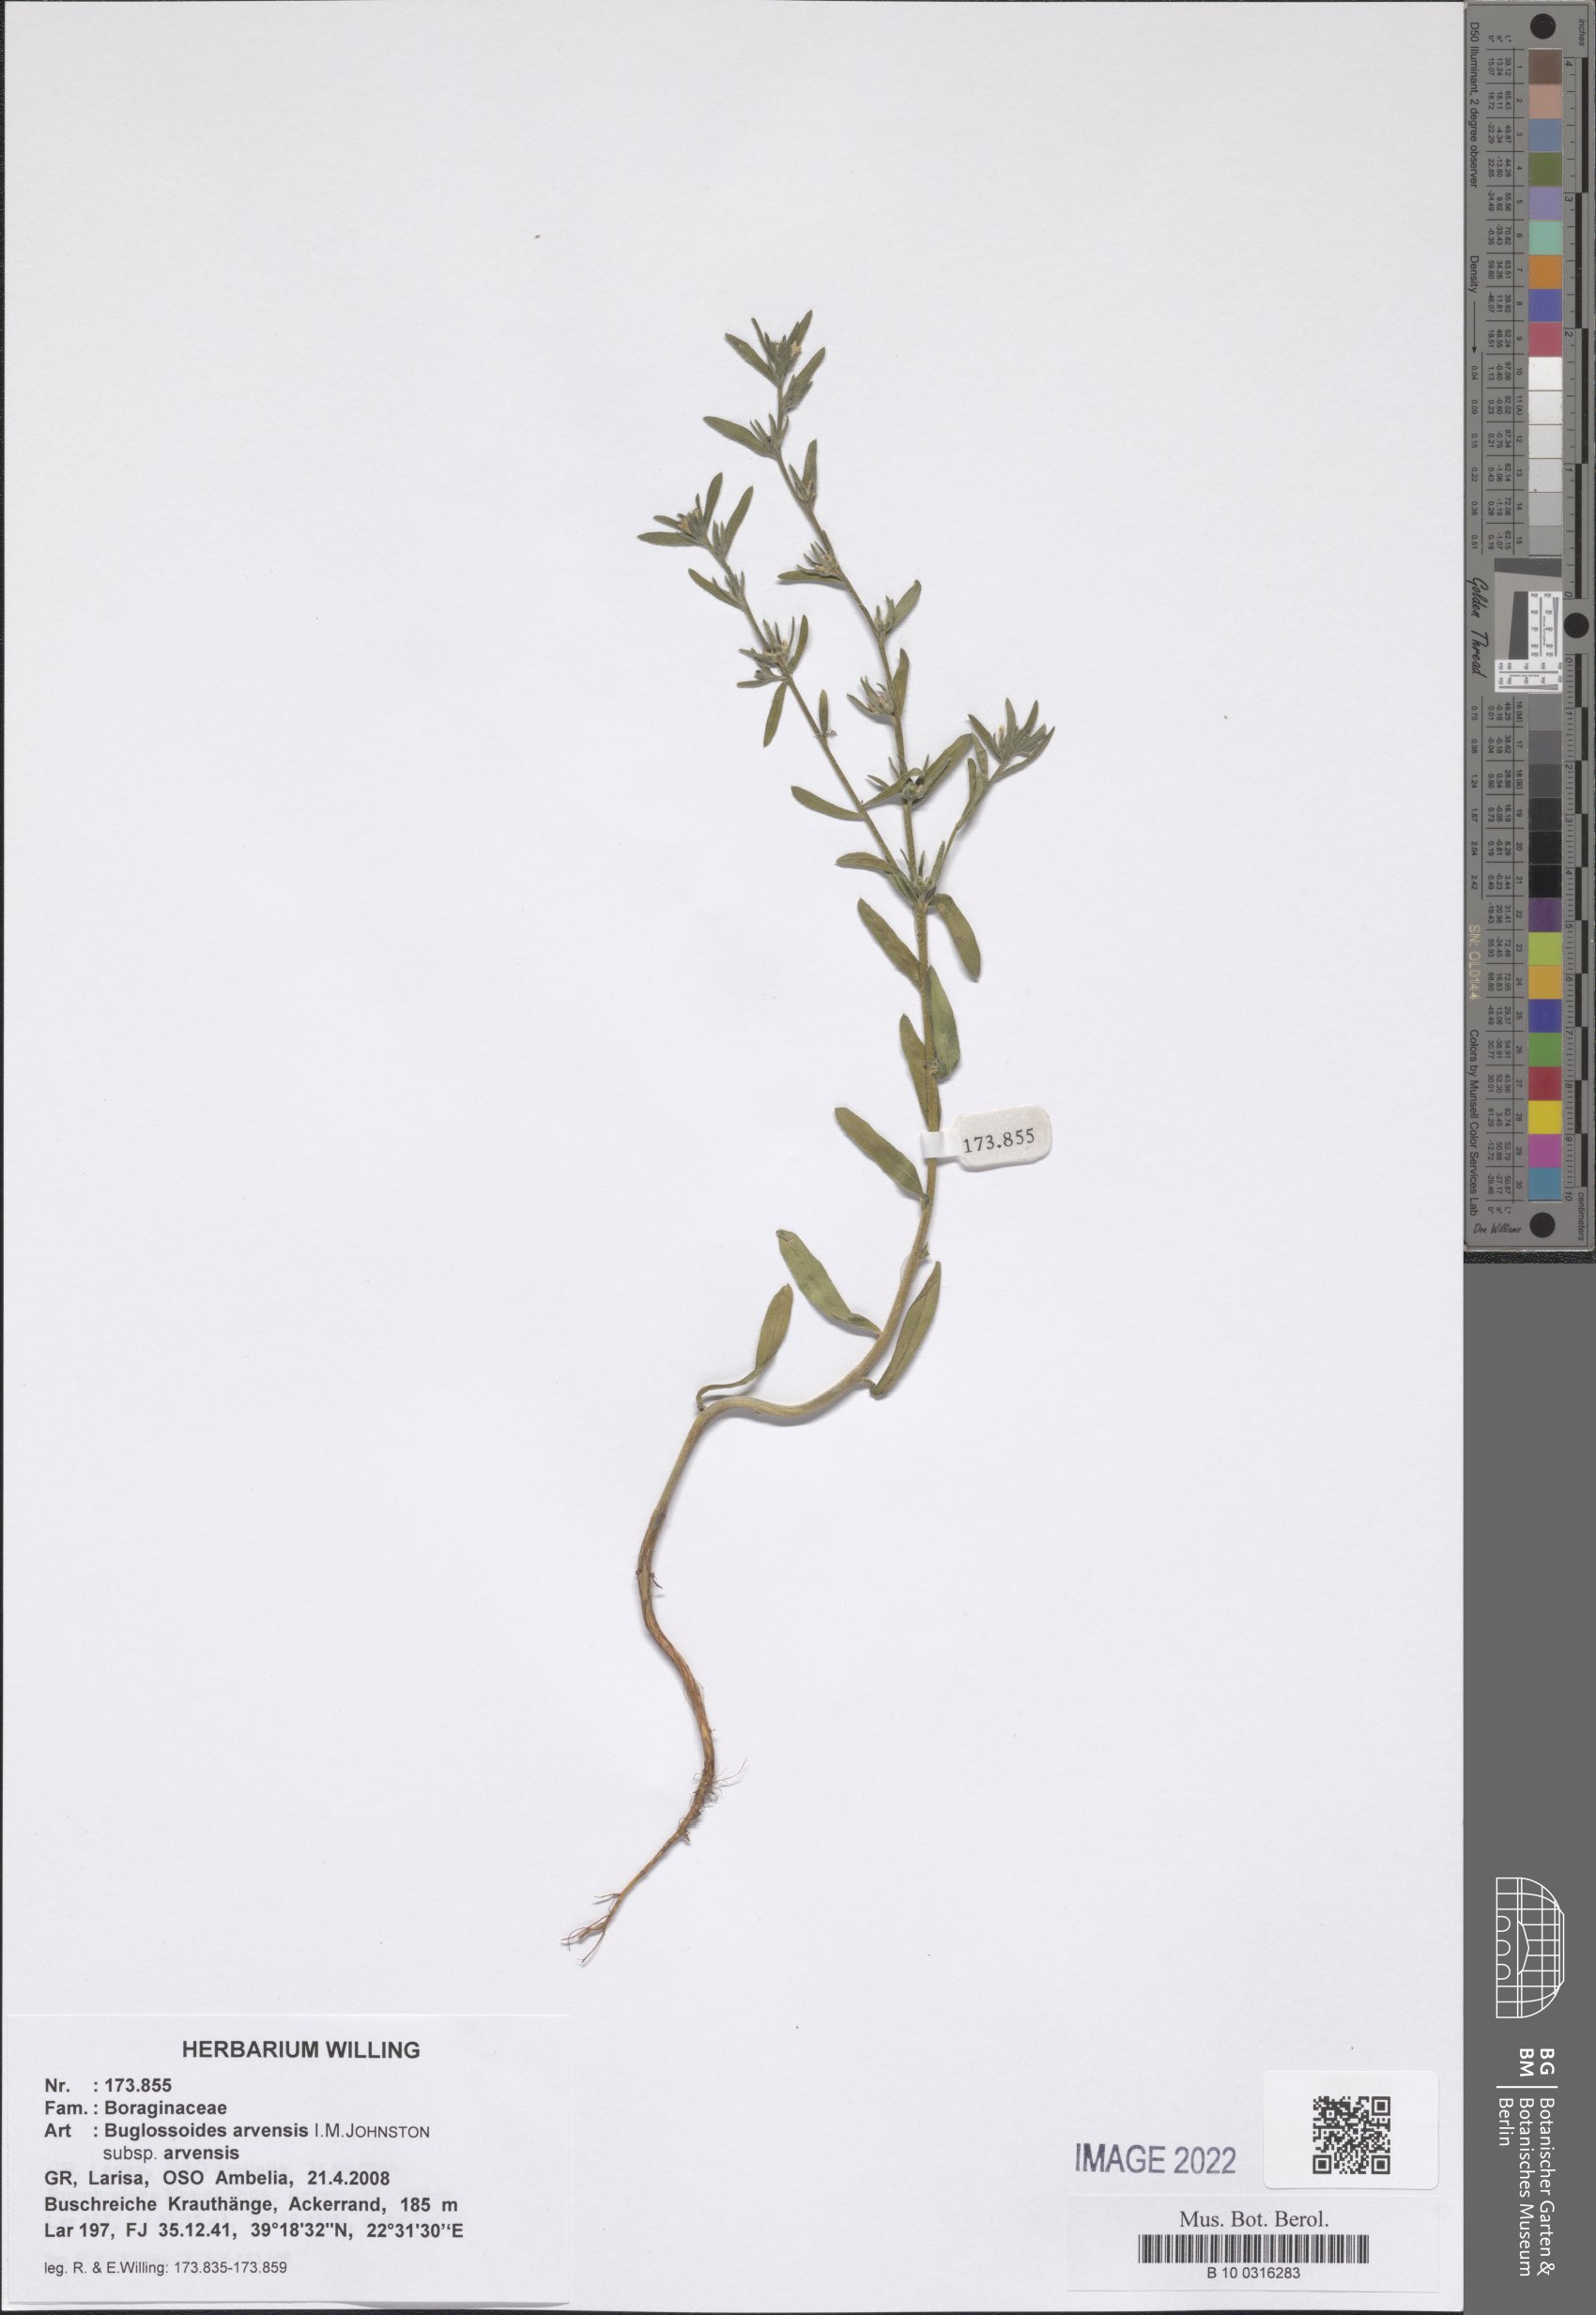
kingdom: Plantae
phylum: Tracheophyta
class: Magnoliopsida
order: Boraginales
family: Boraginaceae
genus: Buglossoides
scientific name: Buglossoides arvensis
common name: Corn gromwell
